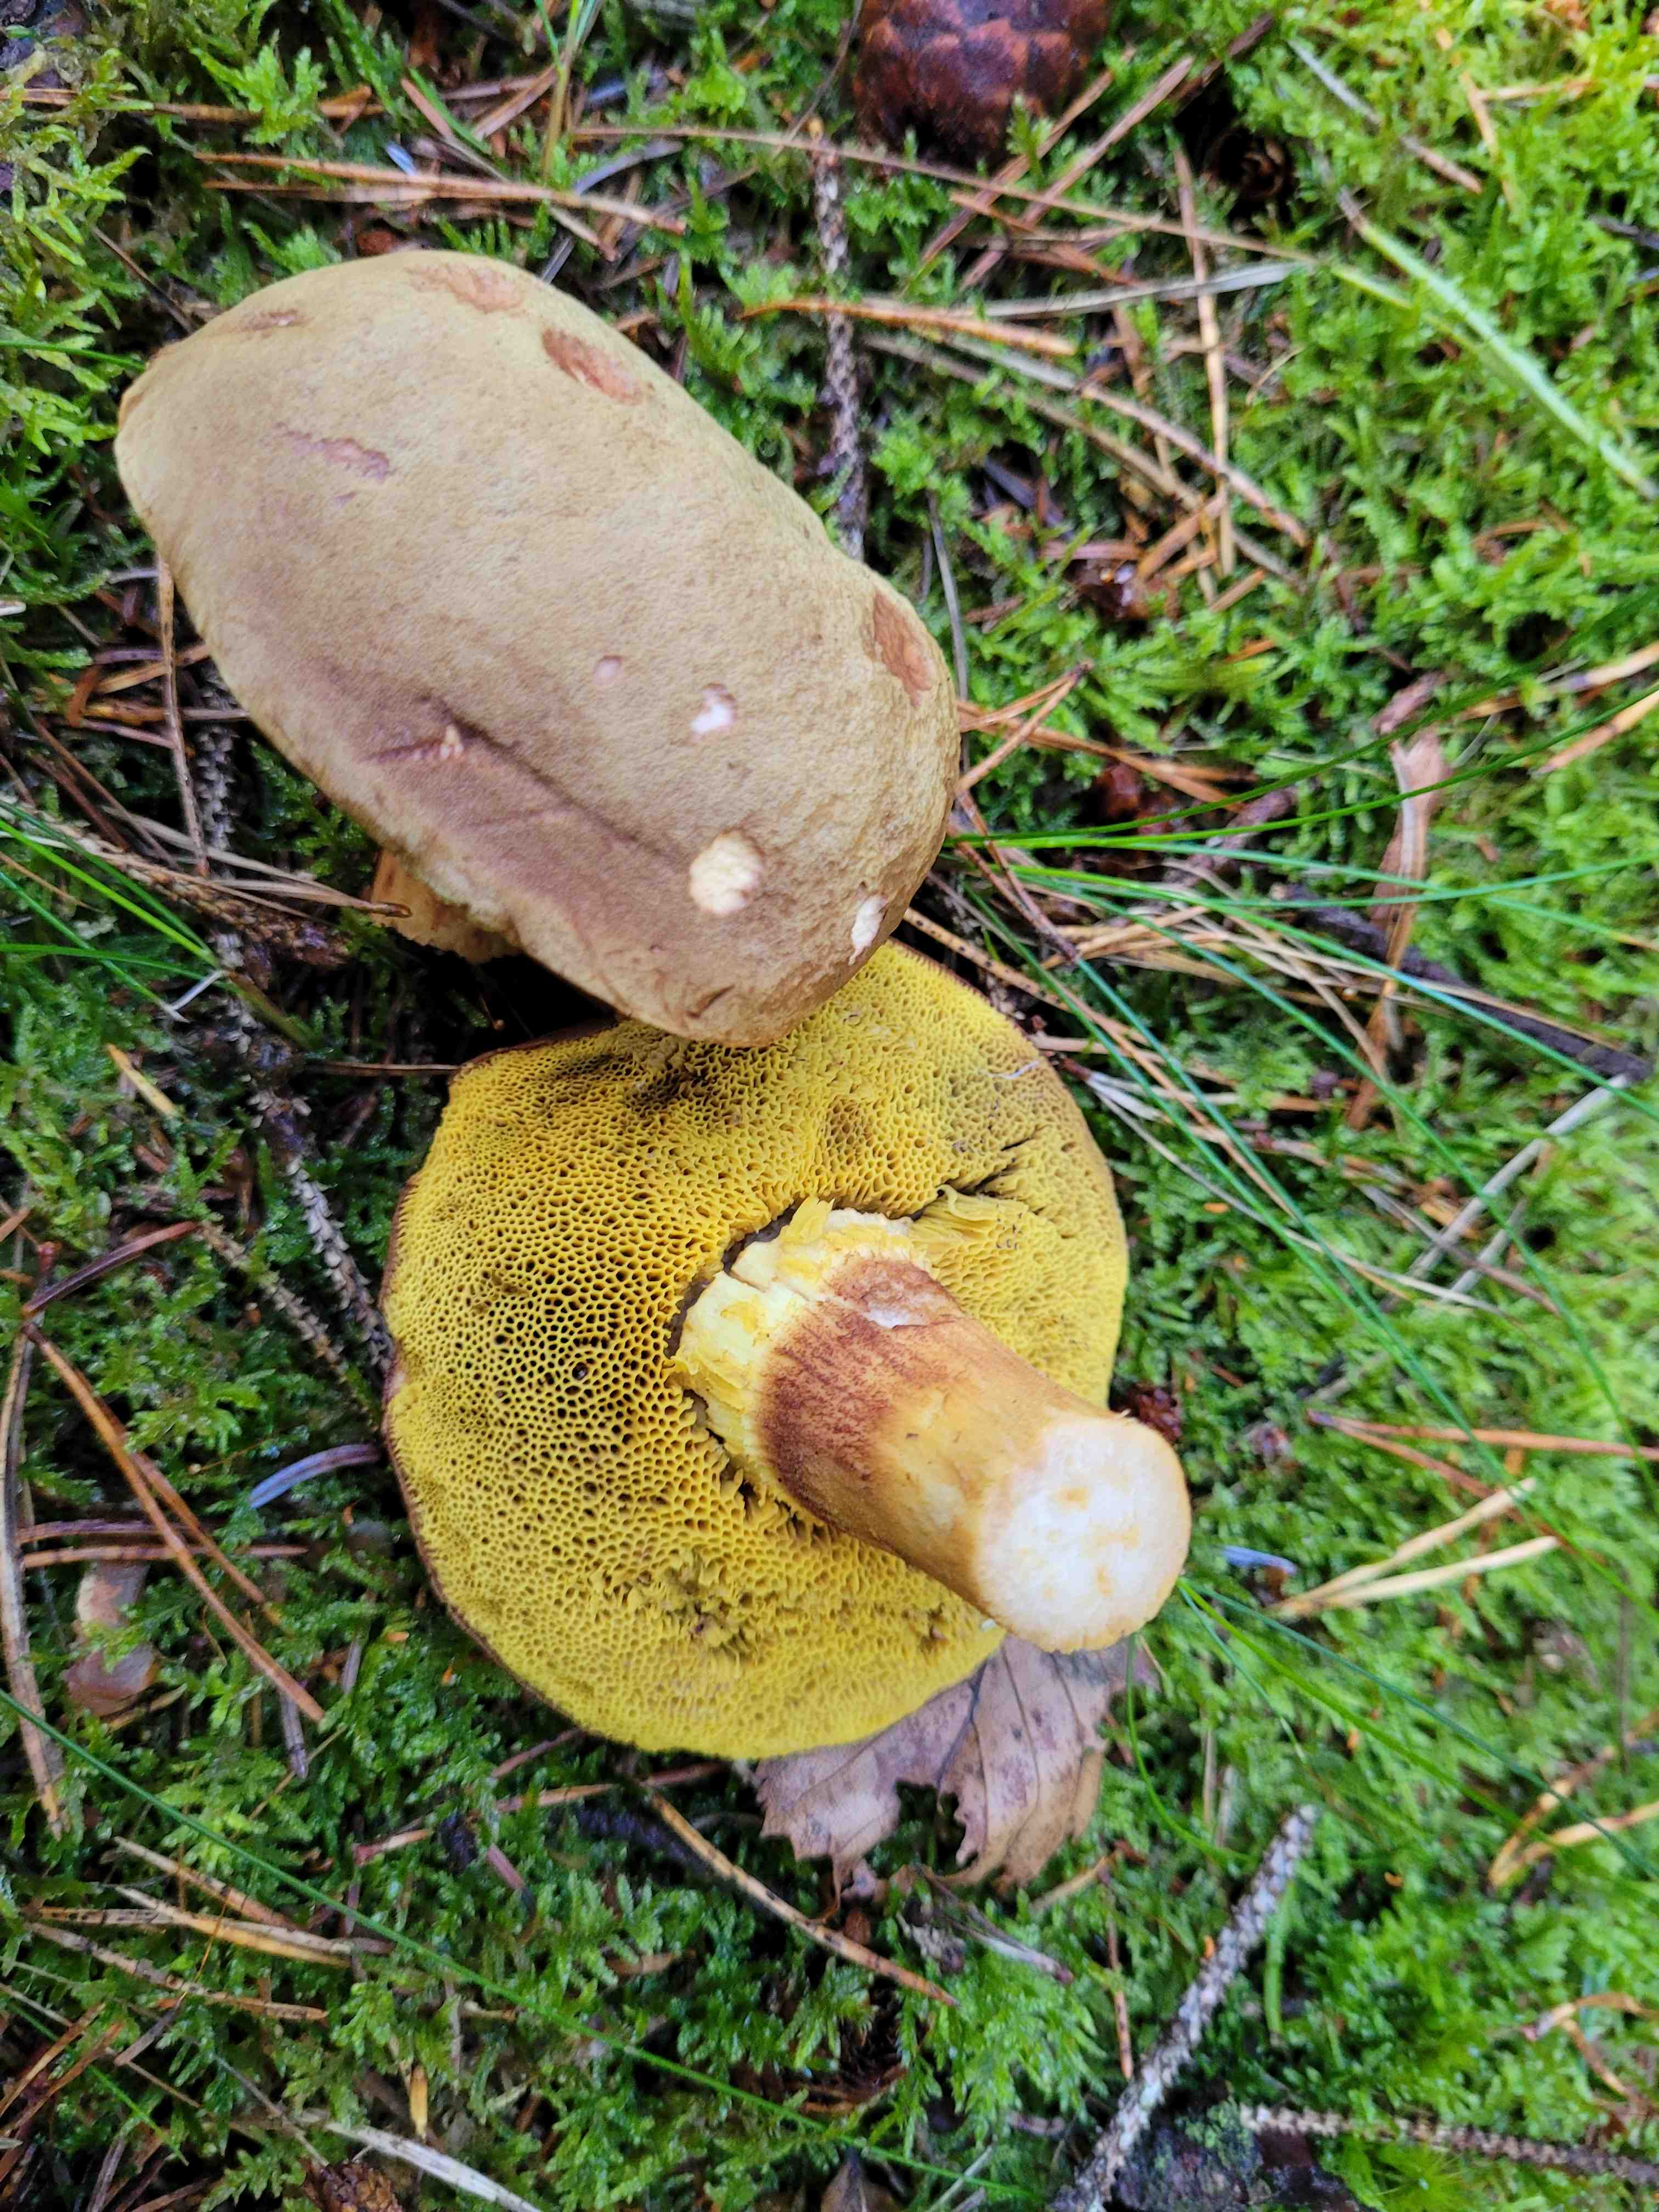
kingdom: Fungi
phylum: Basidiomycota
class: Agaricomycetes
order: Boletales
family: Boletaceae
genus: Xerocomus
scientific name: Xerocomus
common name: filtrørhat
